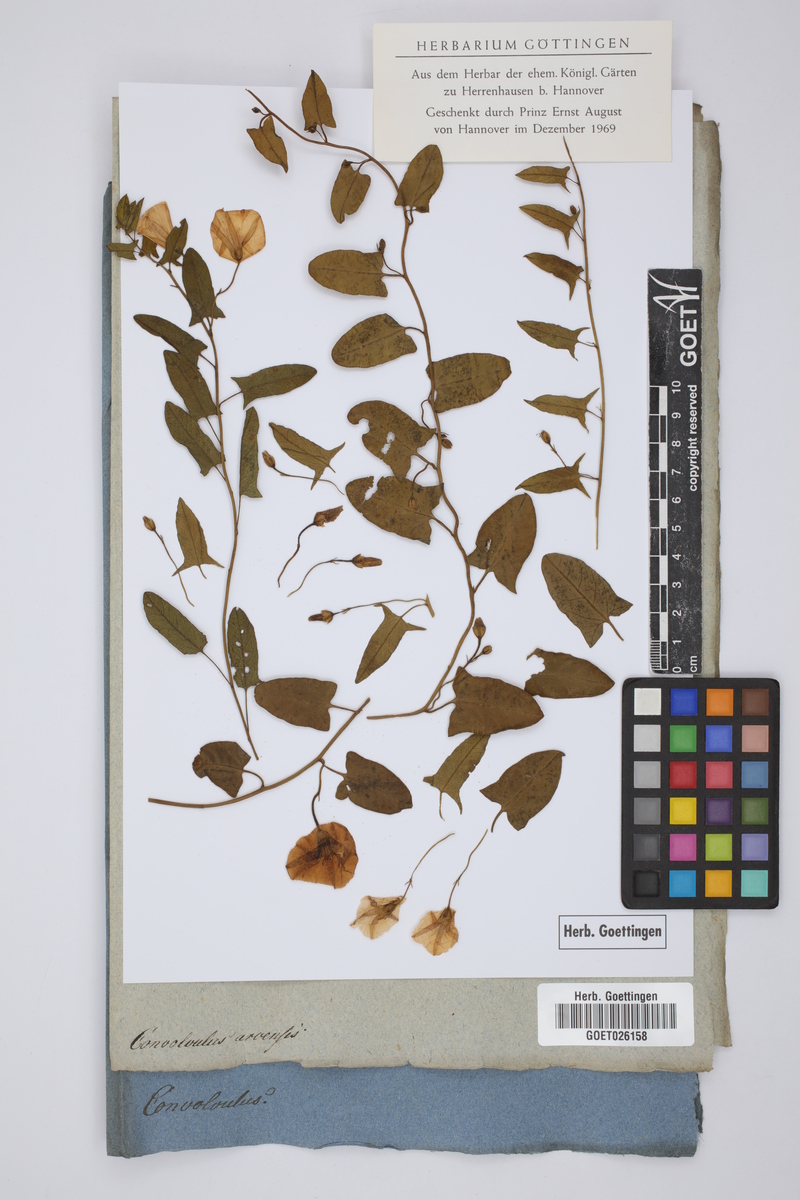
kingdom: Plantae
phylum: Tracheophyta
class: Magnoliopsida
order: Solanales
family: Convolvulaceae
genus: Convolvulus
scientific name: Convolvulus arvensis
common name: Field bindweed
